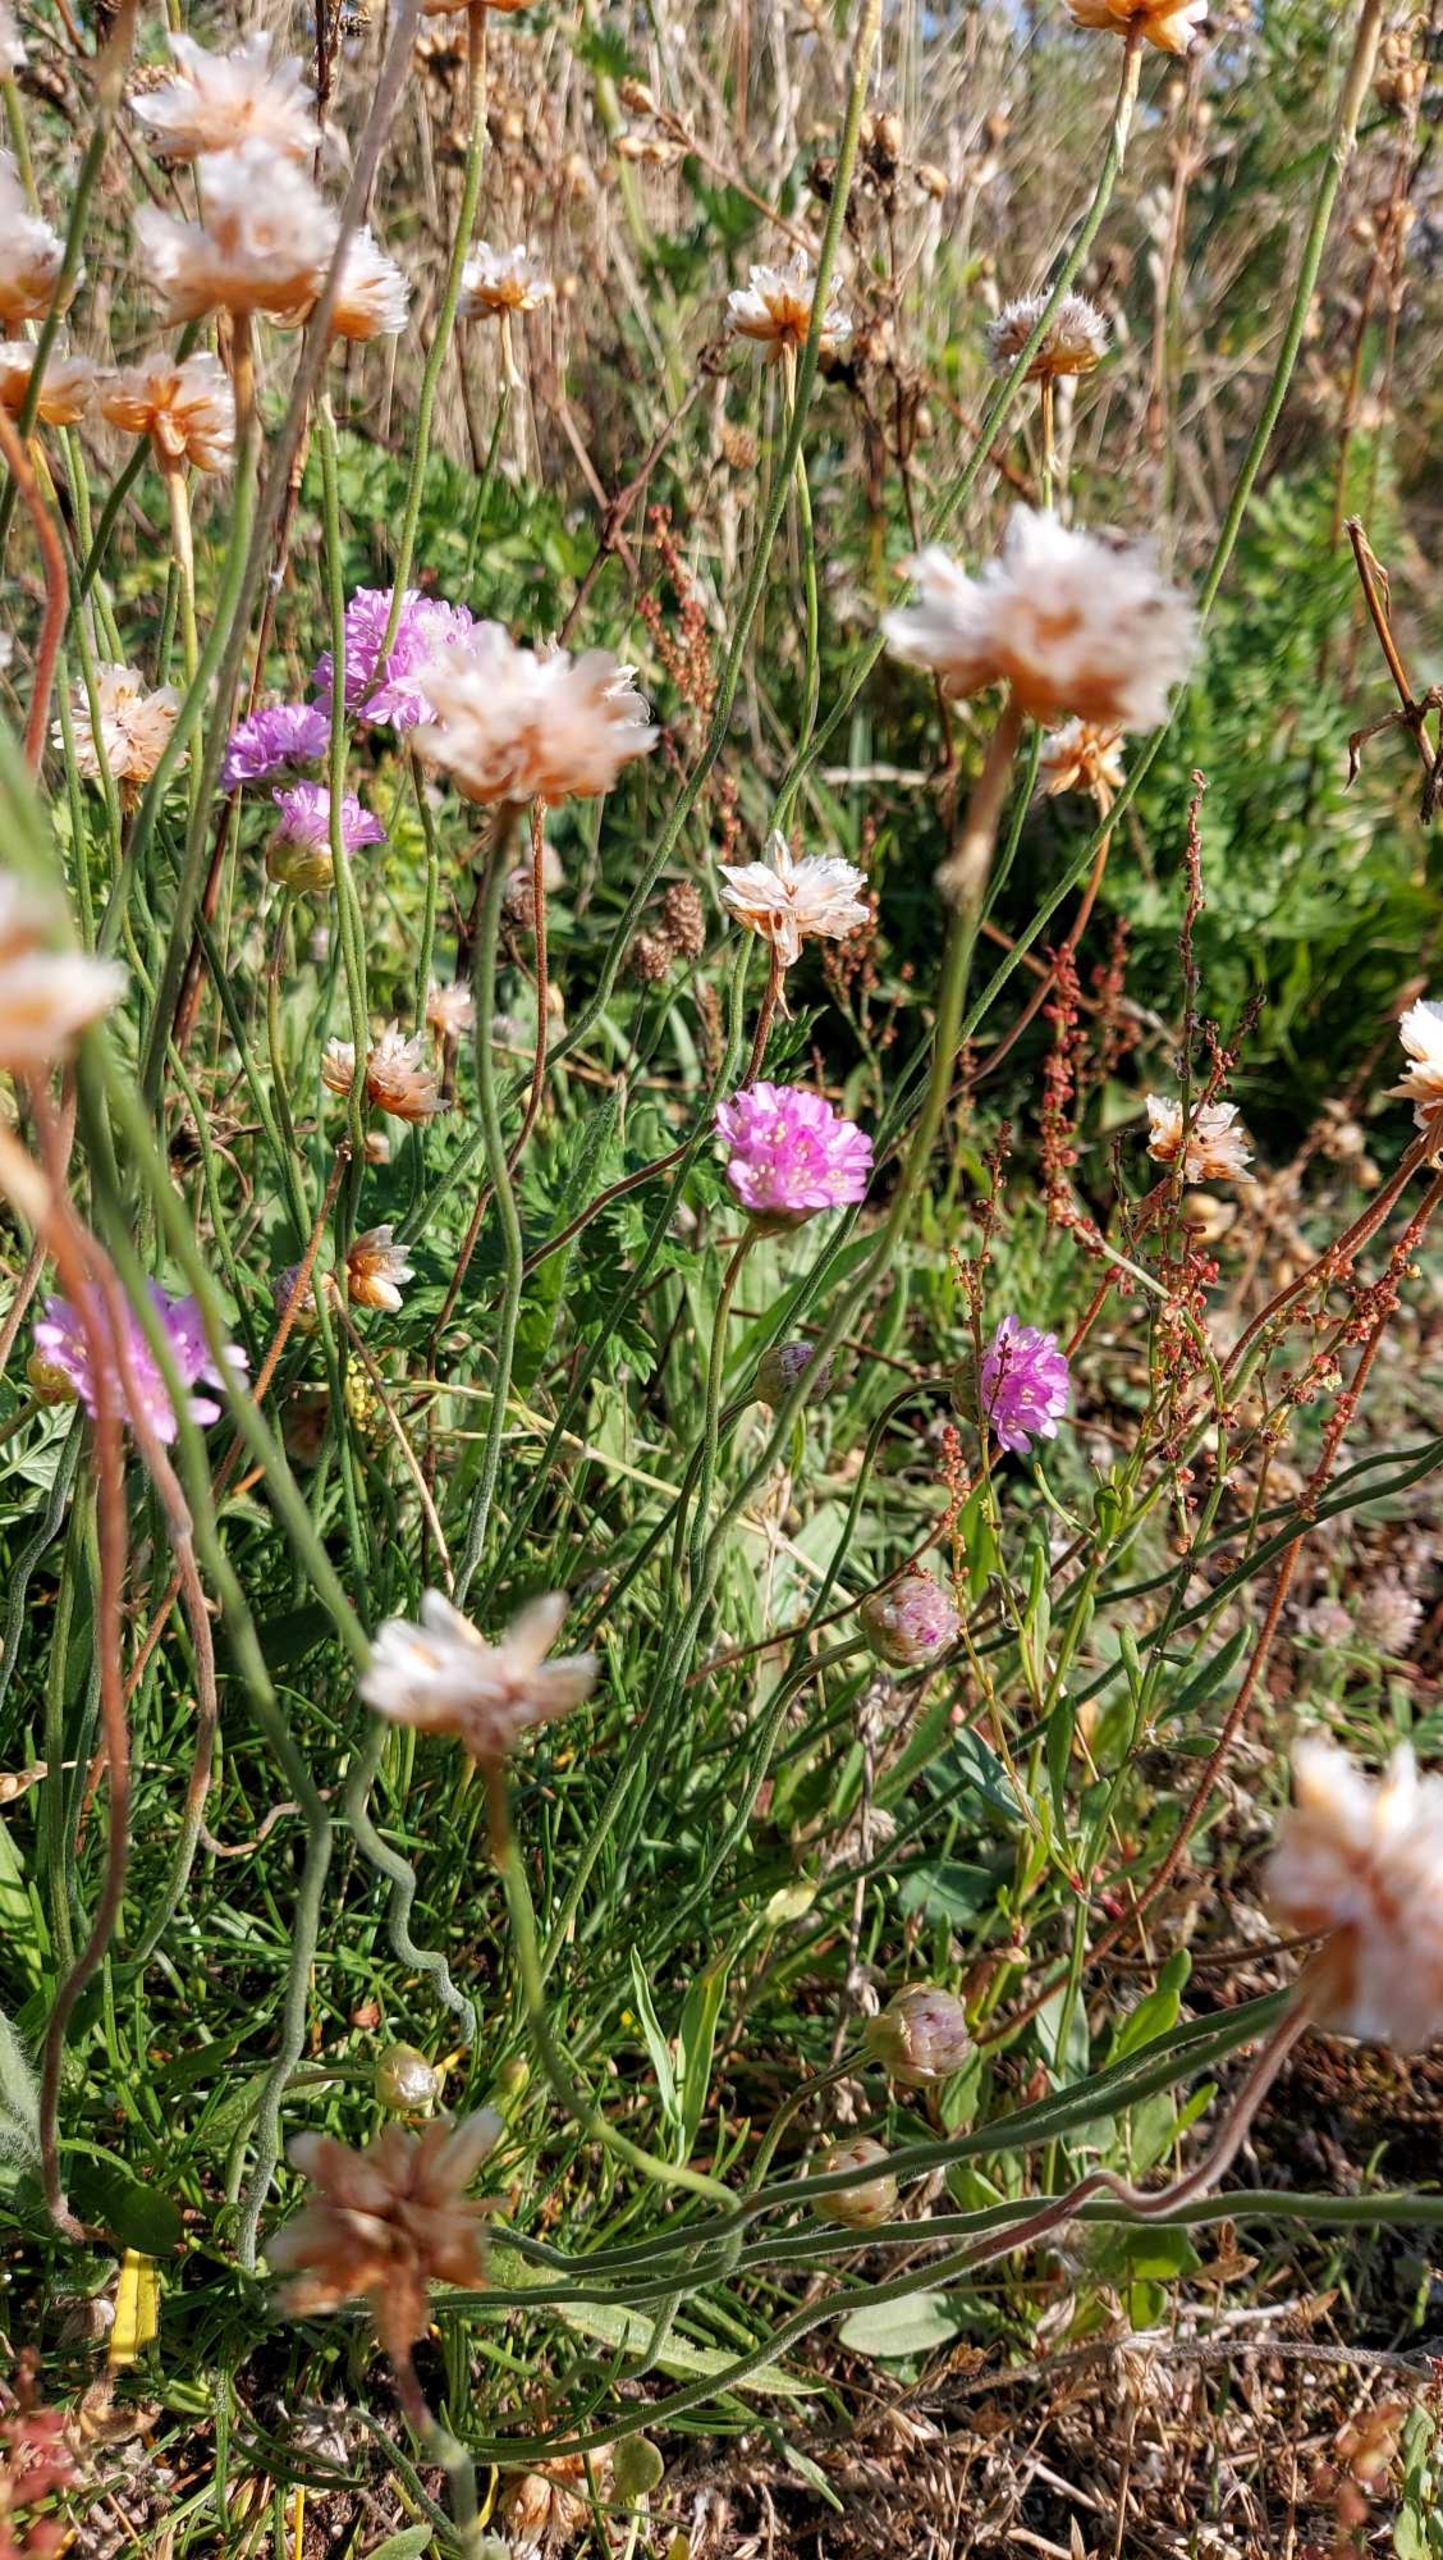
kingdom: Plantae
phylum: Tracheophyta
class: Magnoliopsida
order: Caryophyllales
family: Plumbaginaceae
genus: Armeria
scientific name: Armeria maritima
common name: Engelskgræs
